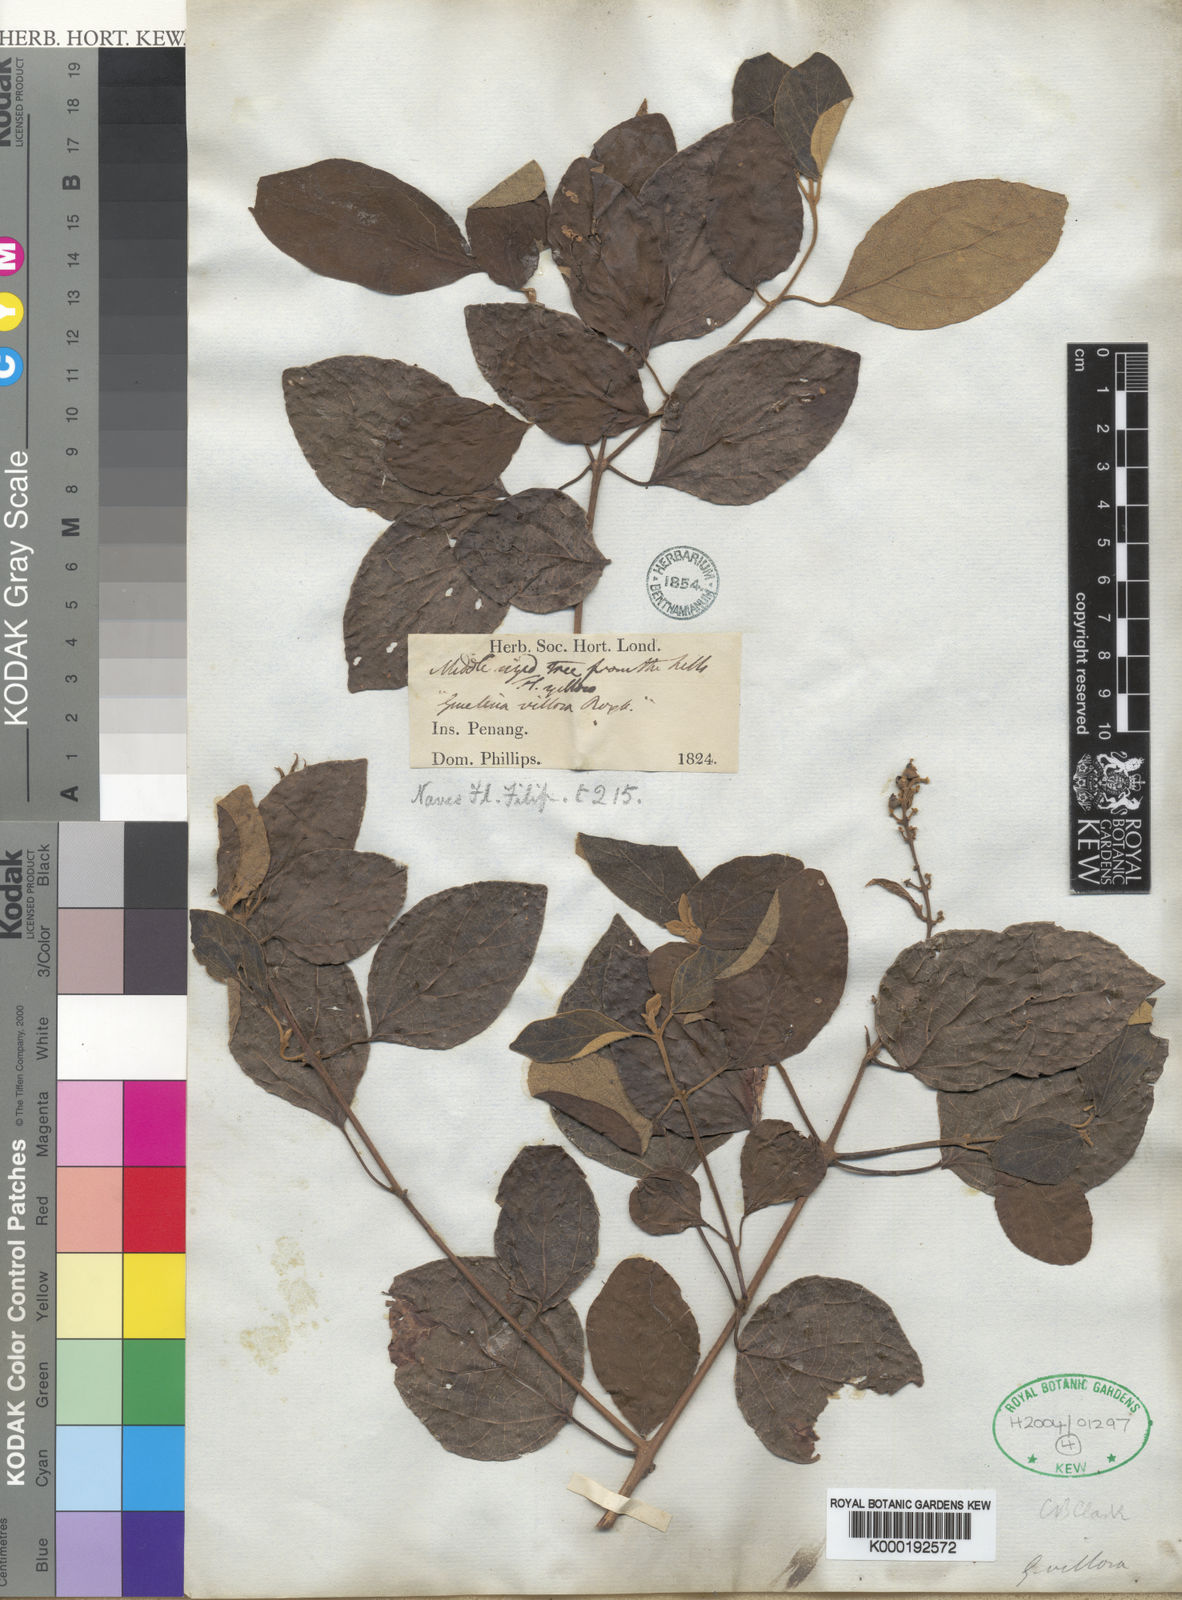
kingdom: Plantae
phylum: Tracheophyta
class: Magnoliopsida
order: Lamiales
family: Lamiaceae
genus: Gmelina
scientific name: Gmelina elliptica
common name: Badhara-bush
